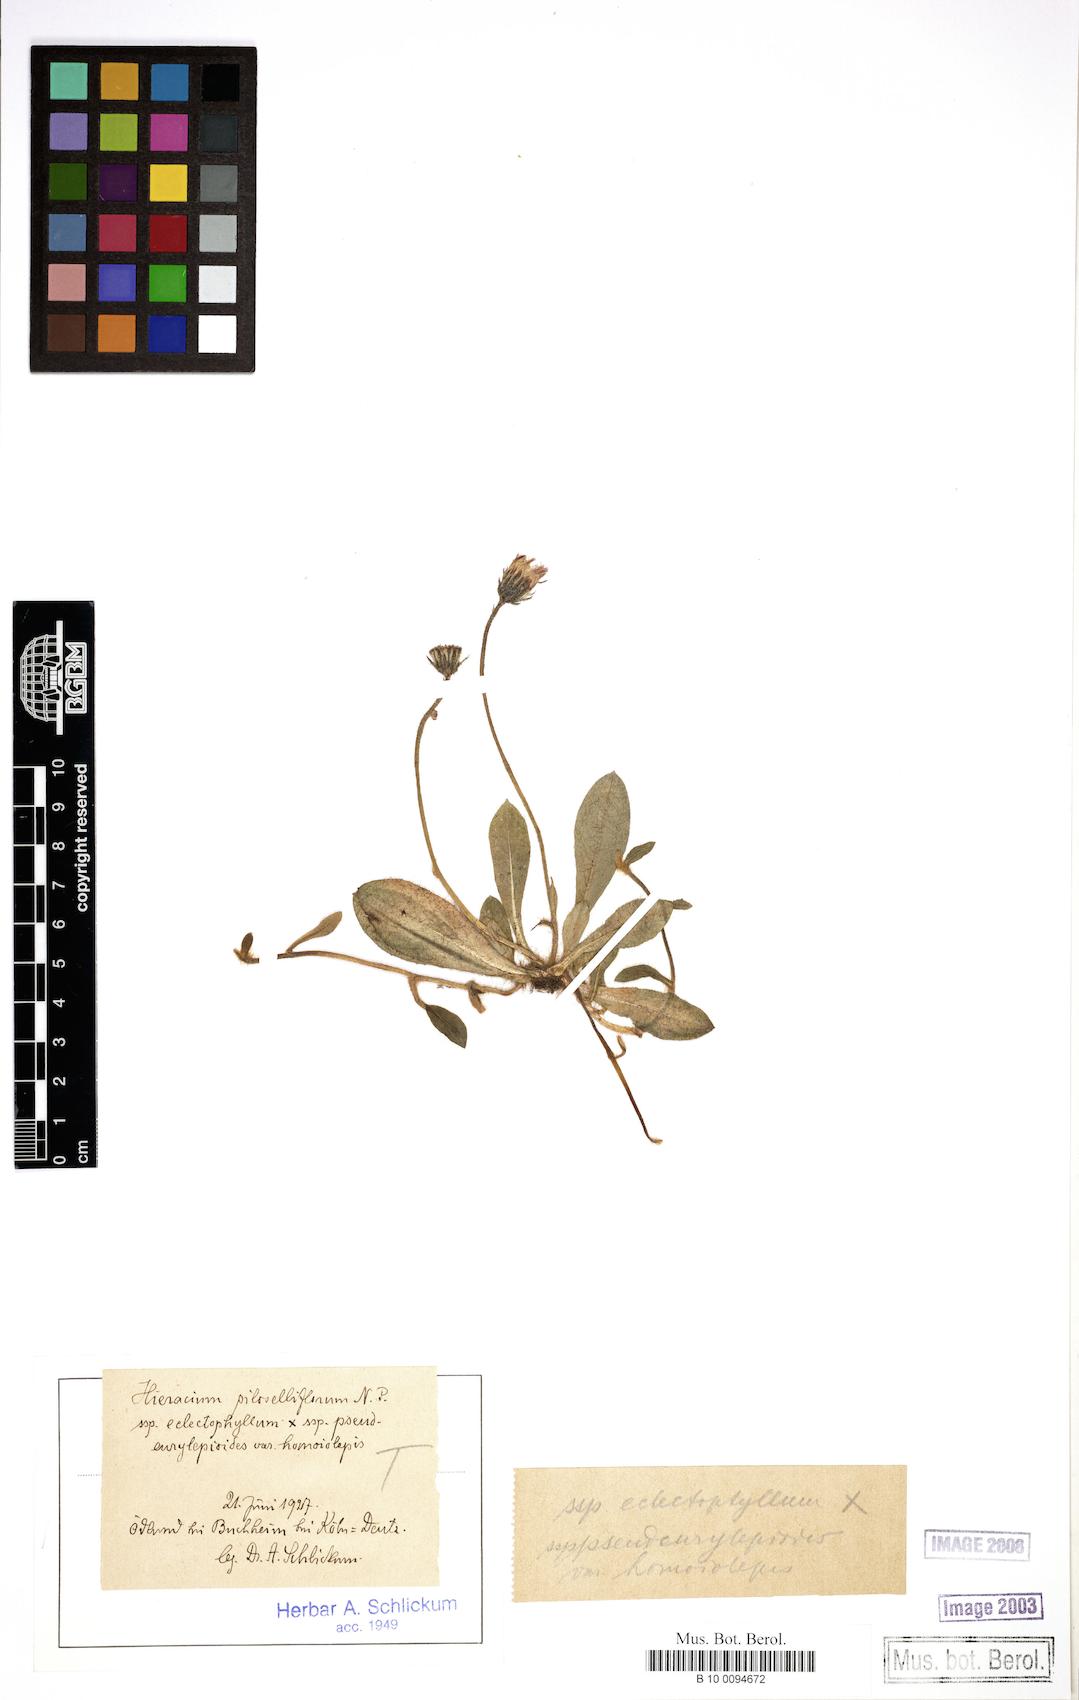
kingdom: Plantae
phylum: Tracheophyta
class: Magnoliopsida
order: Asterales
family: Asteraceae
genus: Pilosella
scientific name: Pilosella piloselliflora
